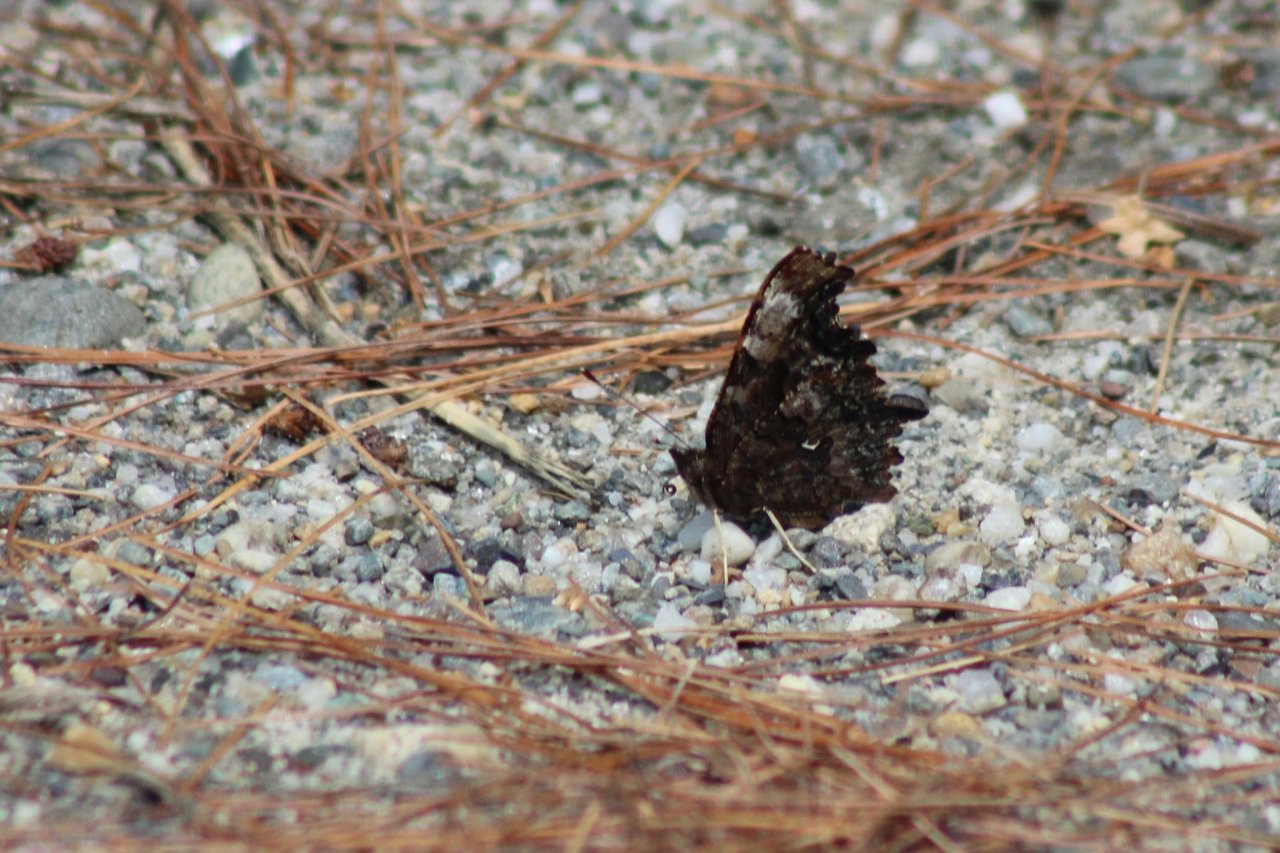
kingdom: Animalia
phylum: Arthropoda
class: Insecta
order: Lepidoptera
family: Nymphalidae
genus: Polygonia
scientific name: Polygonia faunus
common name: Green Comma
